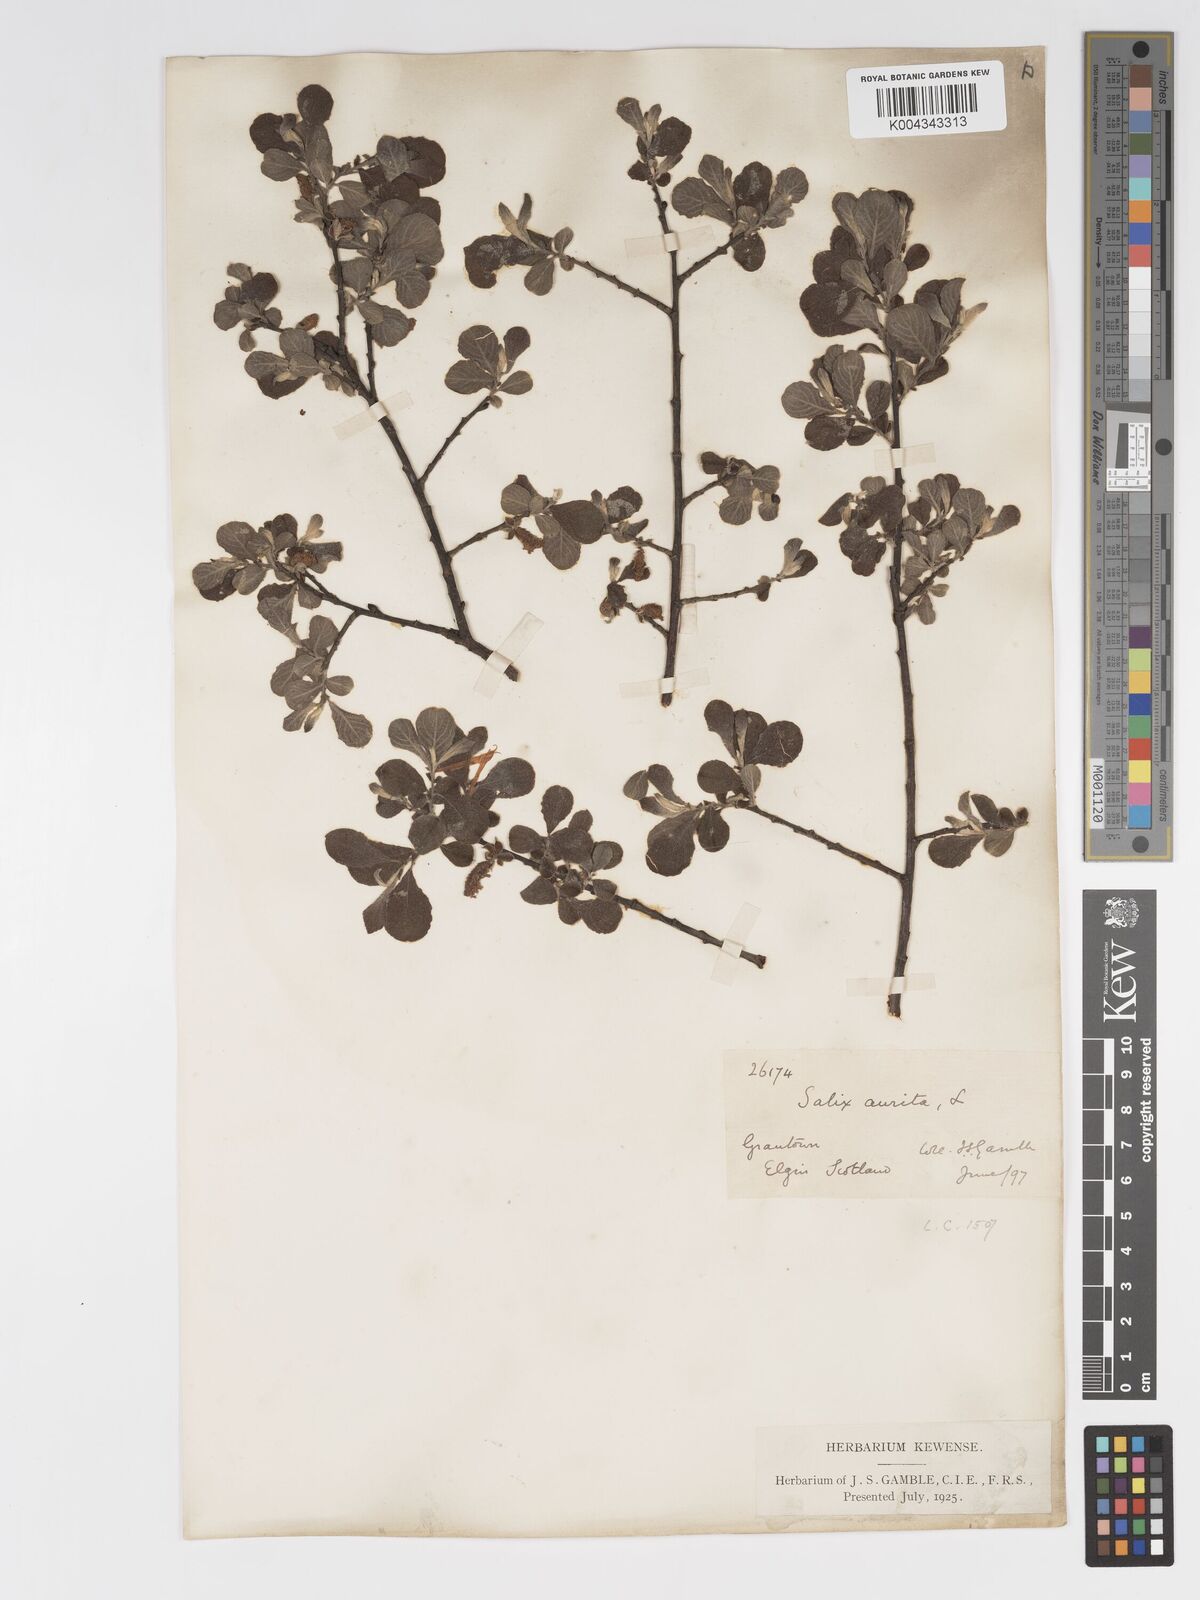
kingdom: Plantae
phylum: Tracheophyta
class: Magnoliopsida
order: Malpighiales
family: Salicaceae
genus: Salix
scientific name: Salix aurita
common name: Eared willow
